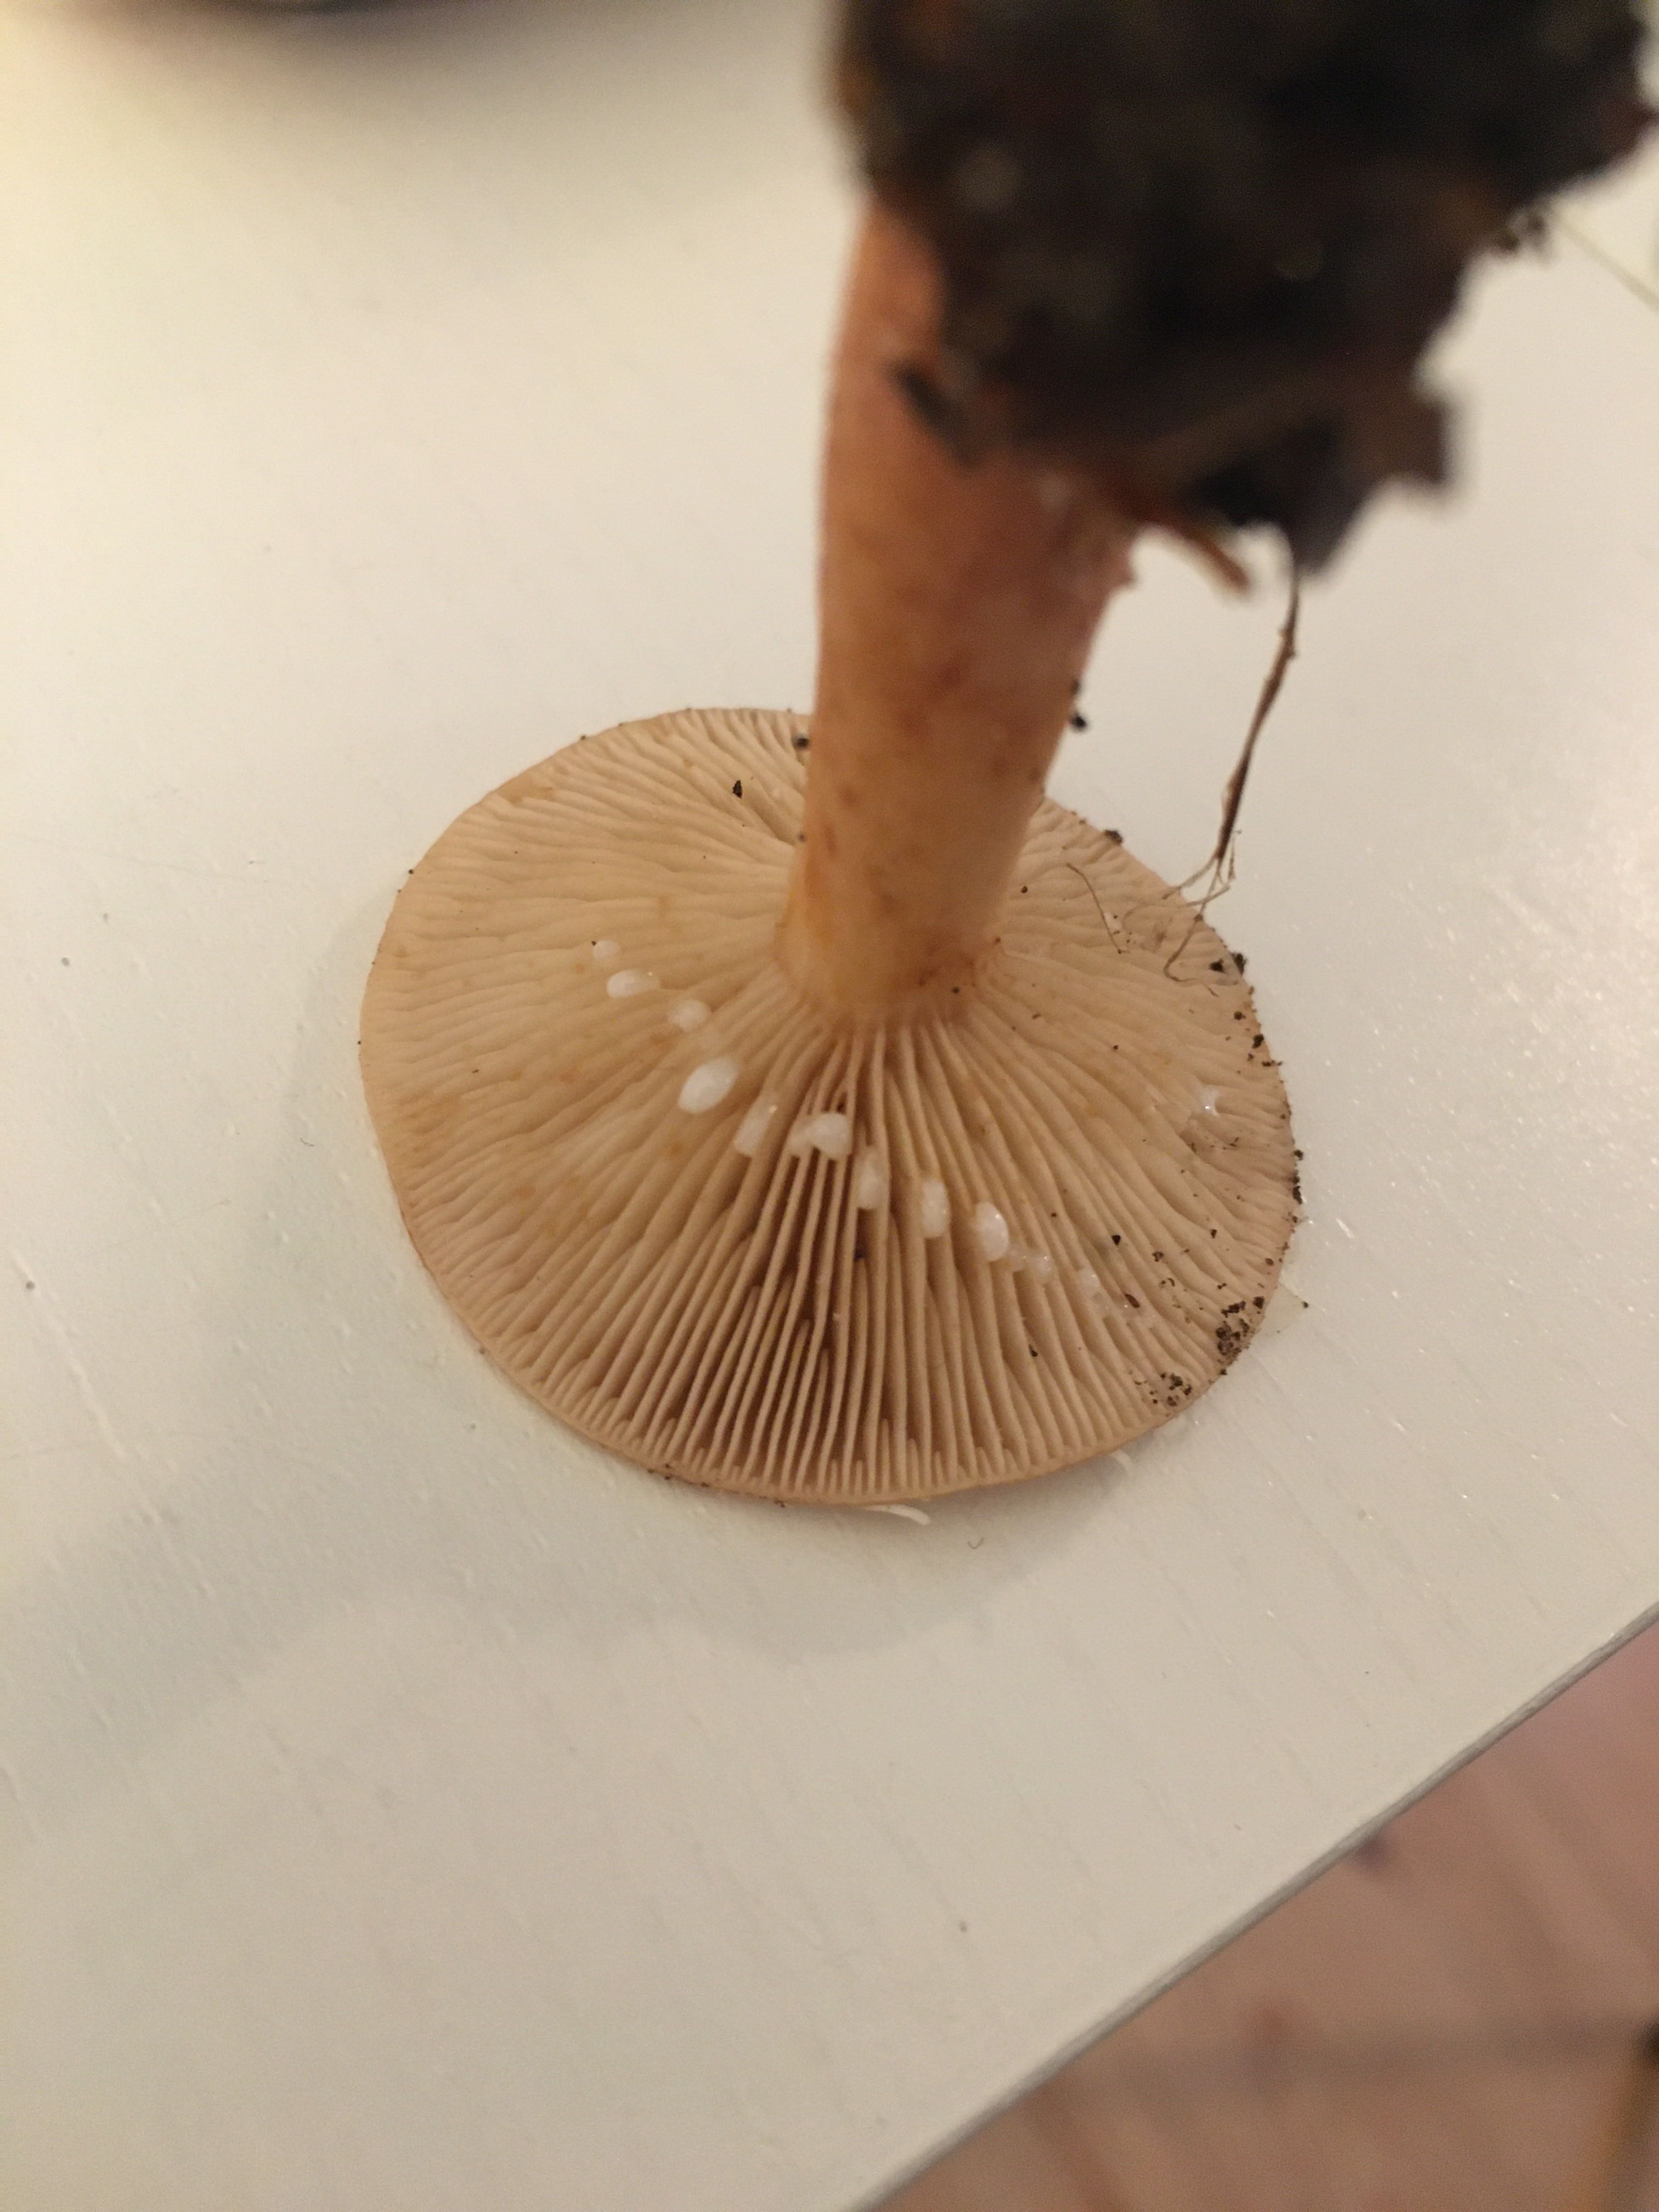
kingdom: Fungi
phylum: Basidiomycota
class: Agaricomycetes
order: Russulales
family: Russulaceae
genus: Lactarius
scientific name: Lactarius subdulcis
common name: sødlig mælkehat
